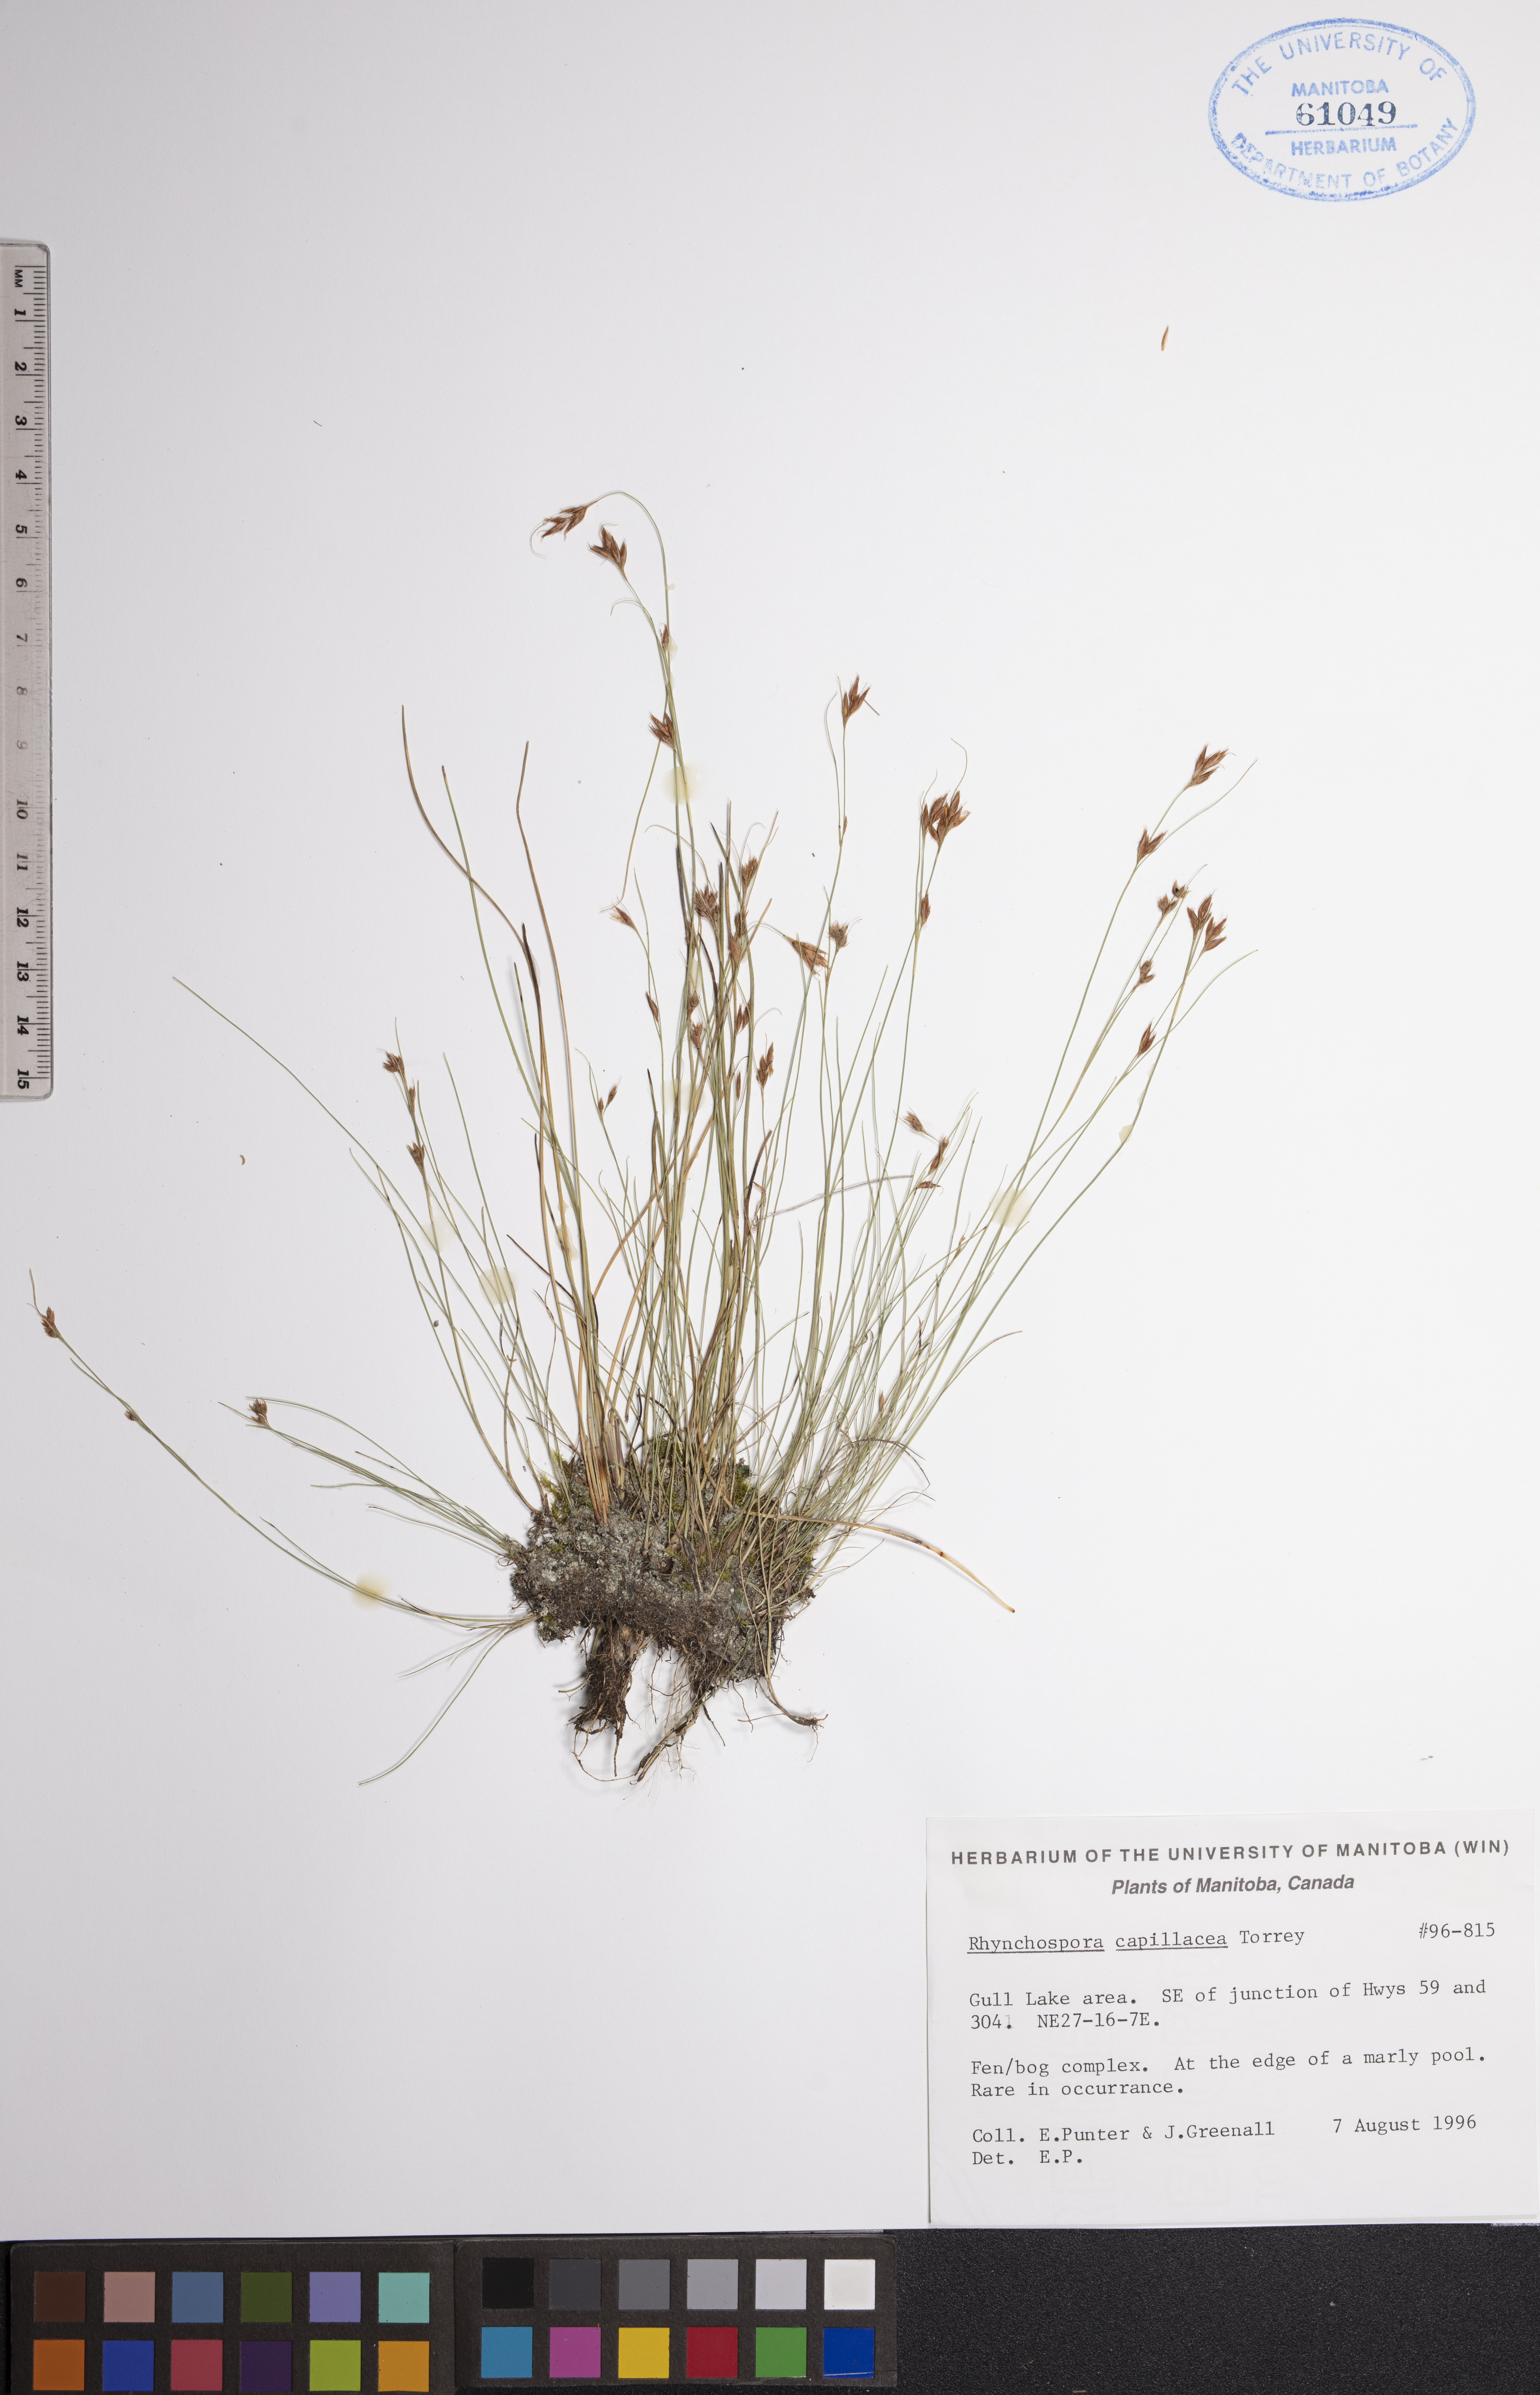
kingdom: Plantae
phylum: Tracheophyta
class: Liliopsida
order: Poales
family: Cyperaceae
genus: Rhynchospora
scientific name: Rhynchospora capillacea
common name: Capillary beakrush
